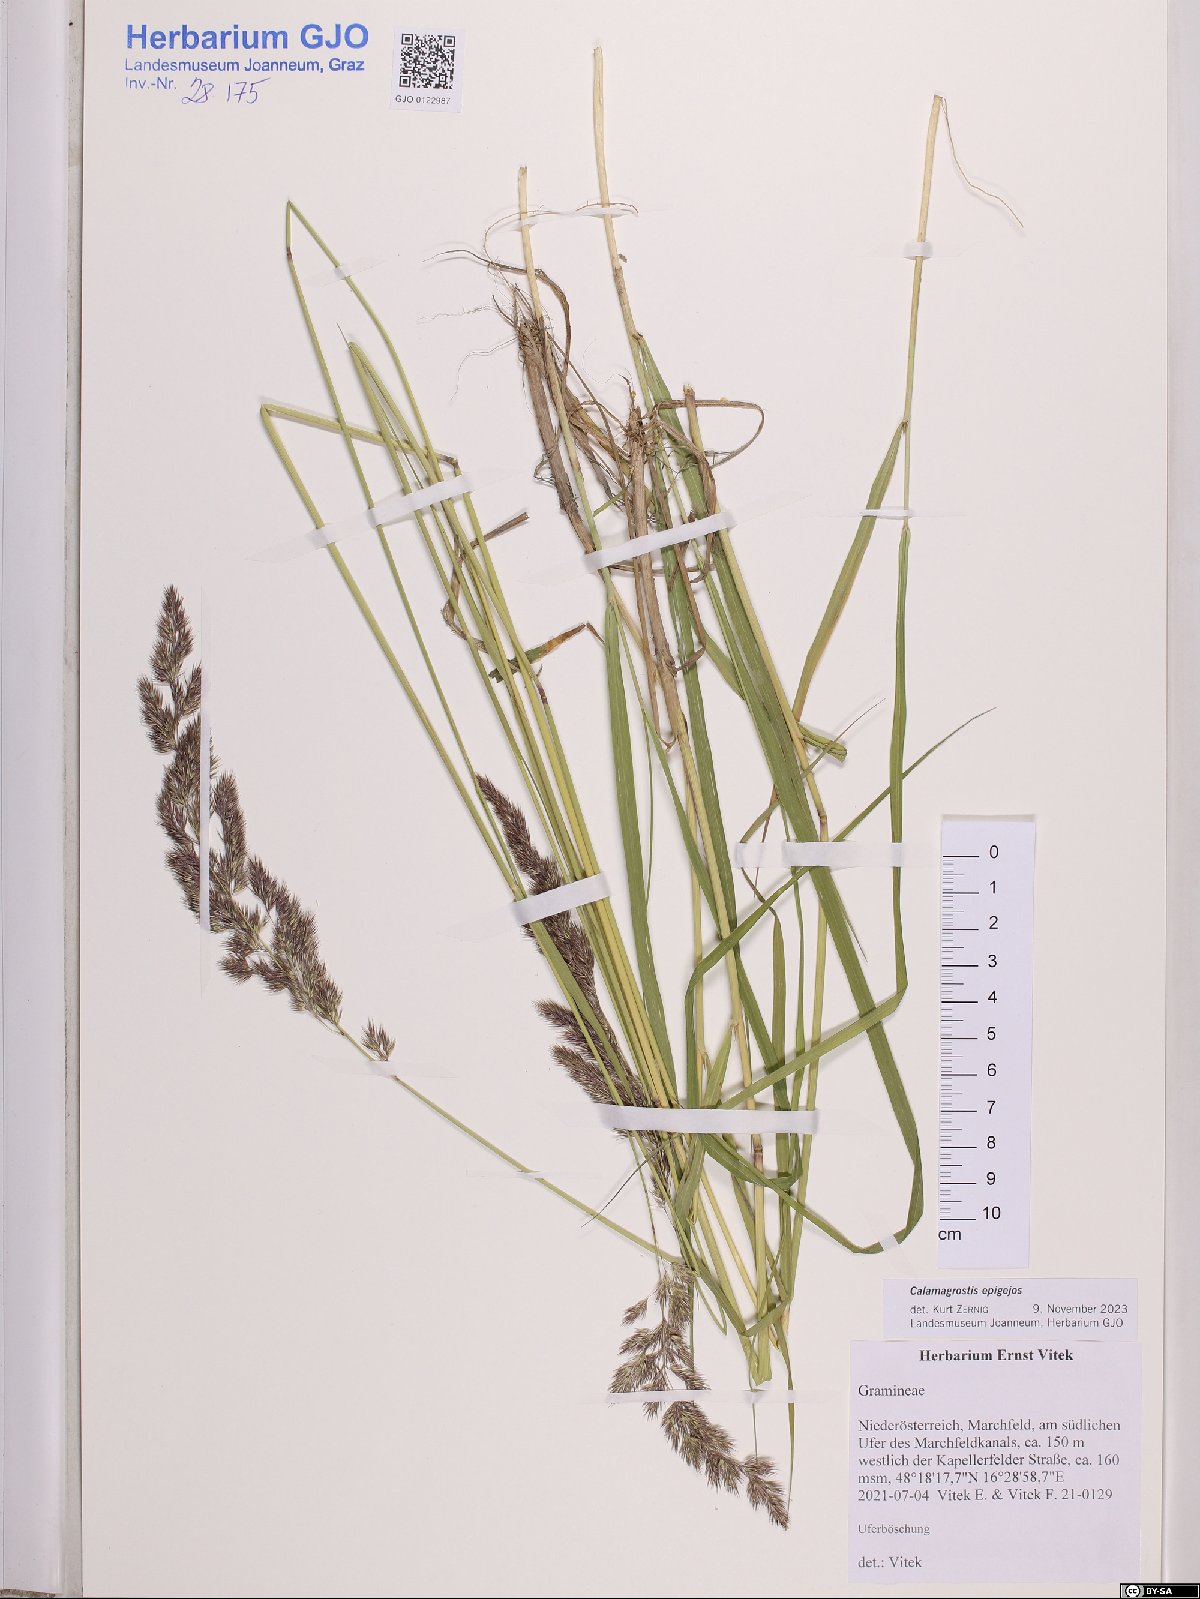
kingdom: Plantae
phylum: Tracheophyta
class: Liliopsida
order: Poales
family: Poaceae
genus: Calamagrostis
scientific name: Calamagrostis epigejos
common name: Wood small-reed
